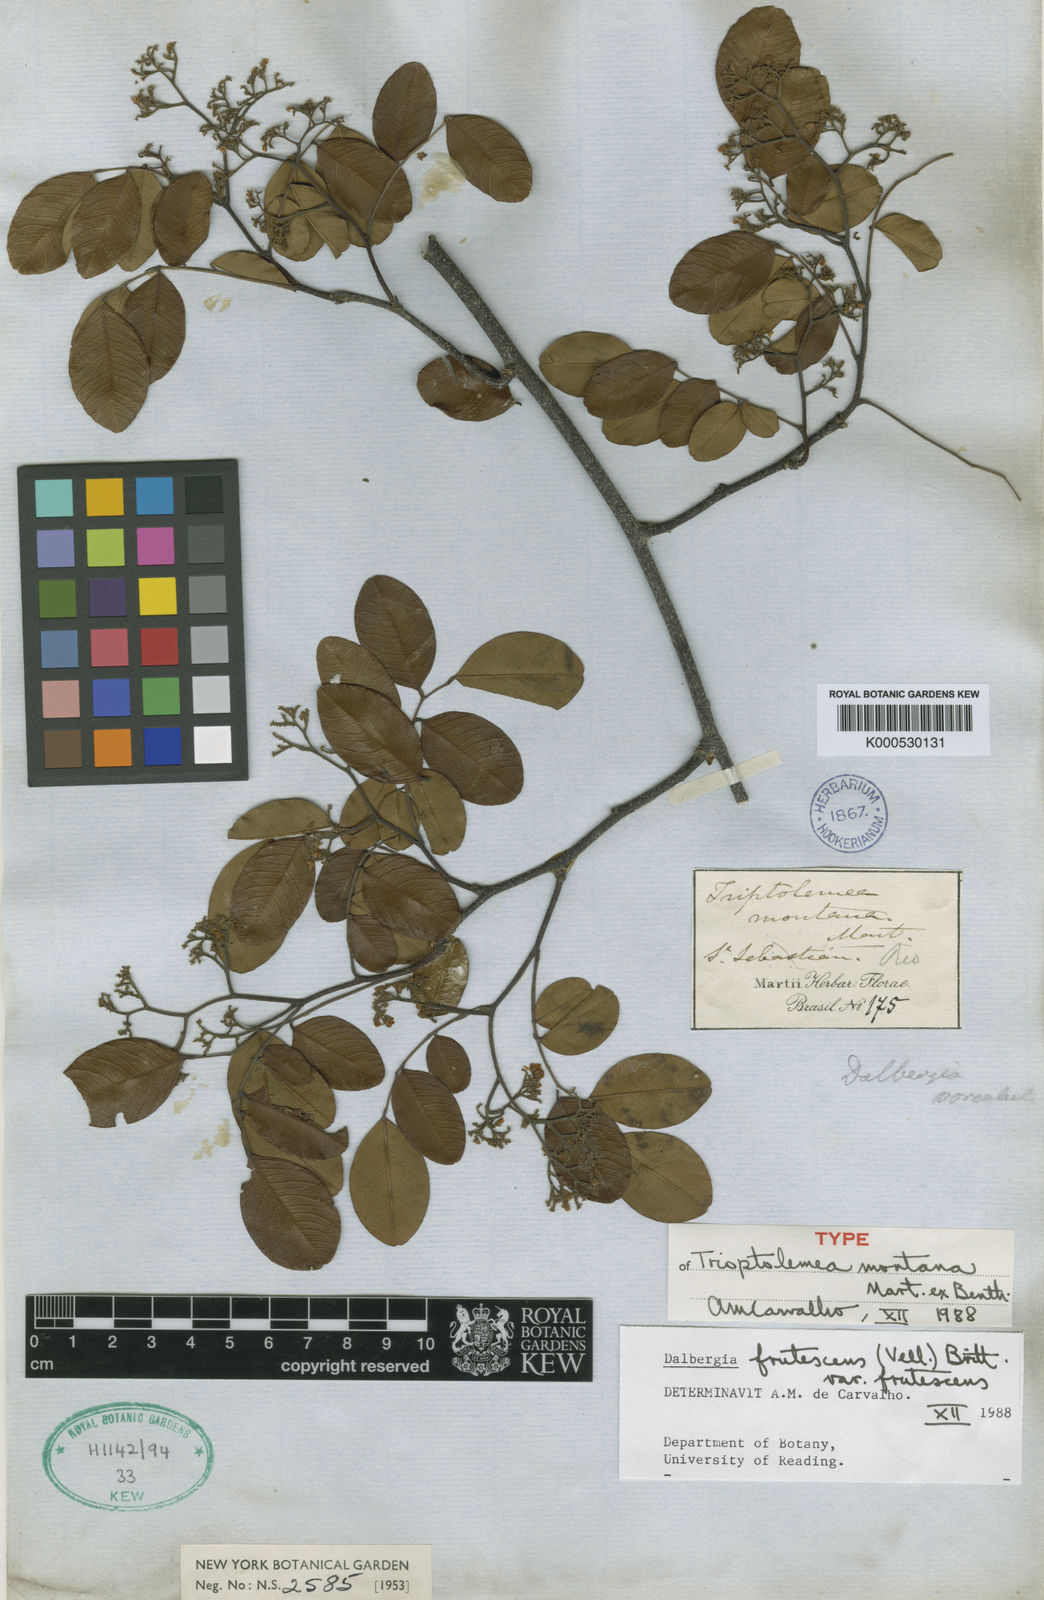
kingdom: Plantae
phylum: Tracheophyta
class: Magnoliopsida
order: Fabales
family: Fabaceae
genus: Dalbergia
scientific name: Dalbergia frutescens
